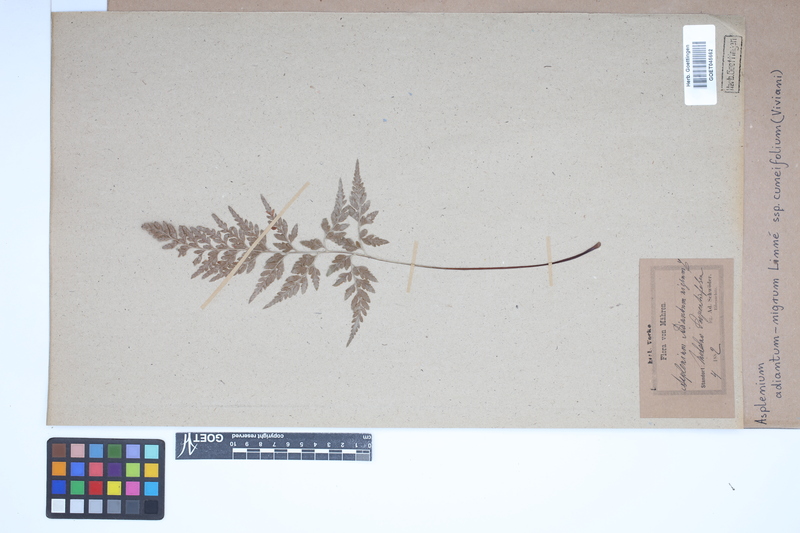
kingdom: Plantae
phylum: Tracheophyta
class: Polypodiopsida
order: Polypodiales
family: Aspleniaceae
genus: Asplenium
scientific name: Asplenium cuneifolium
